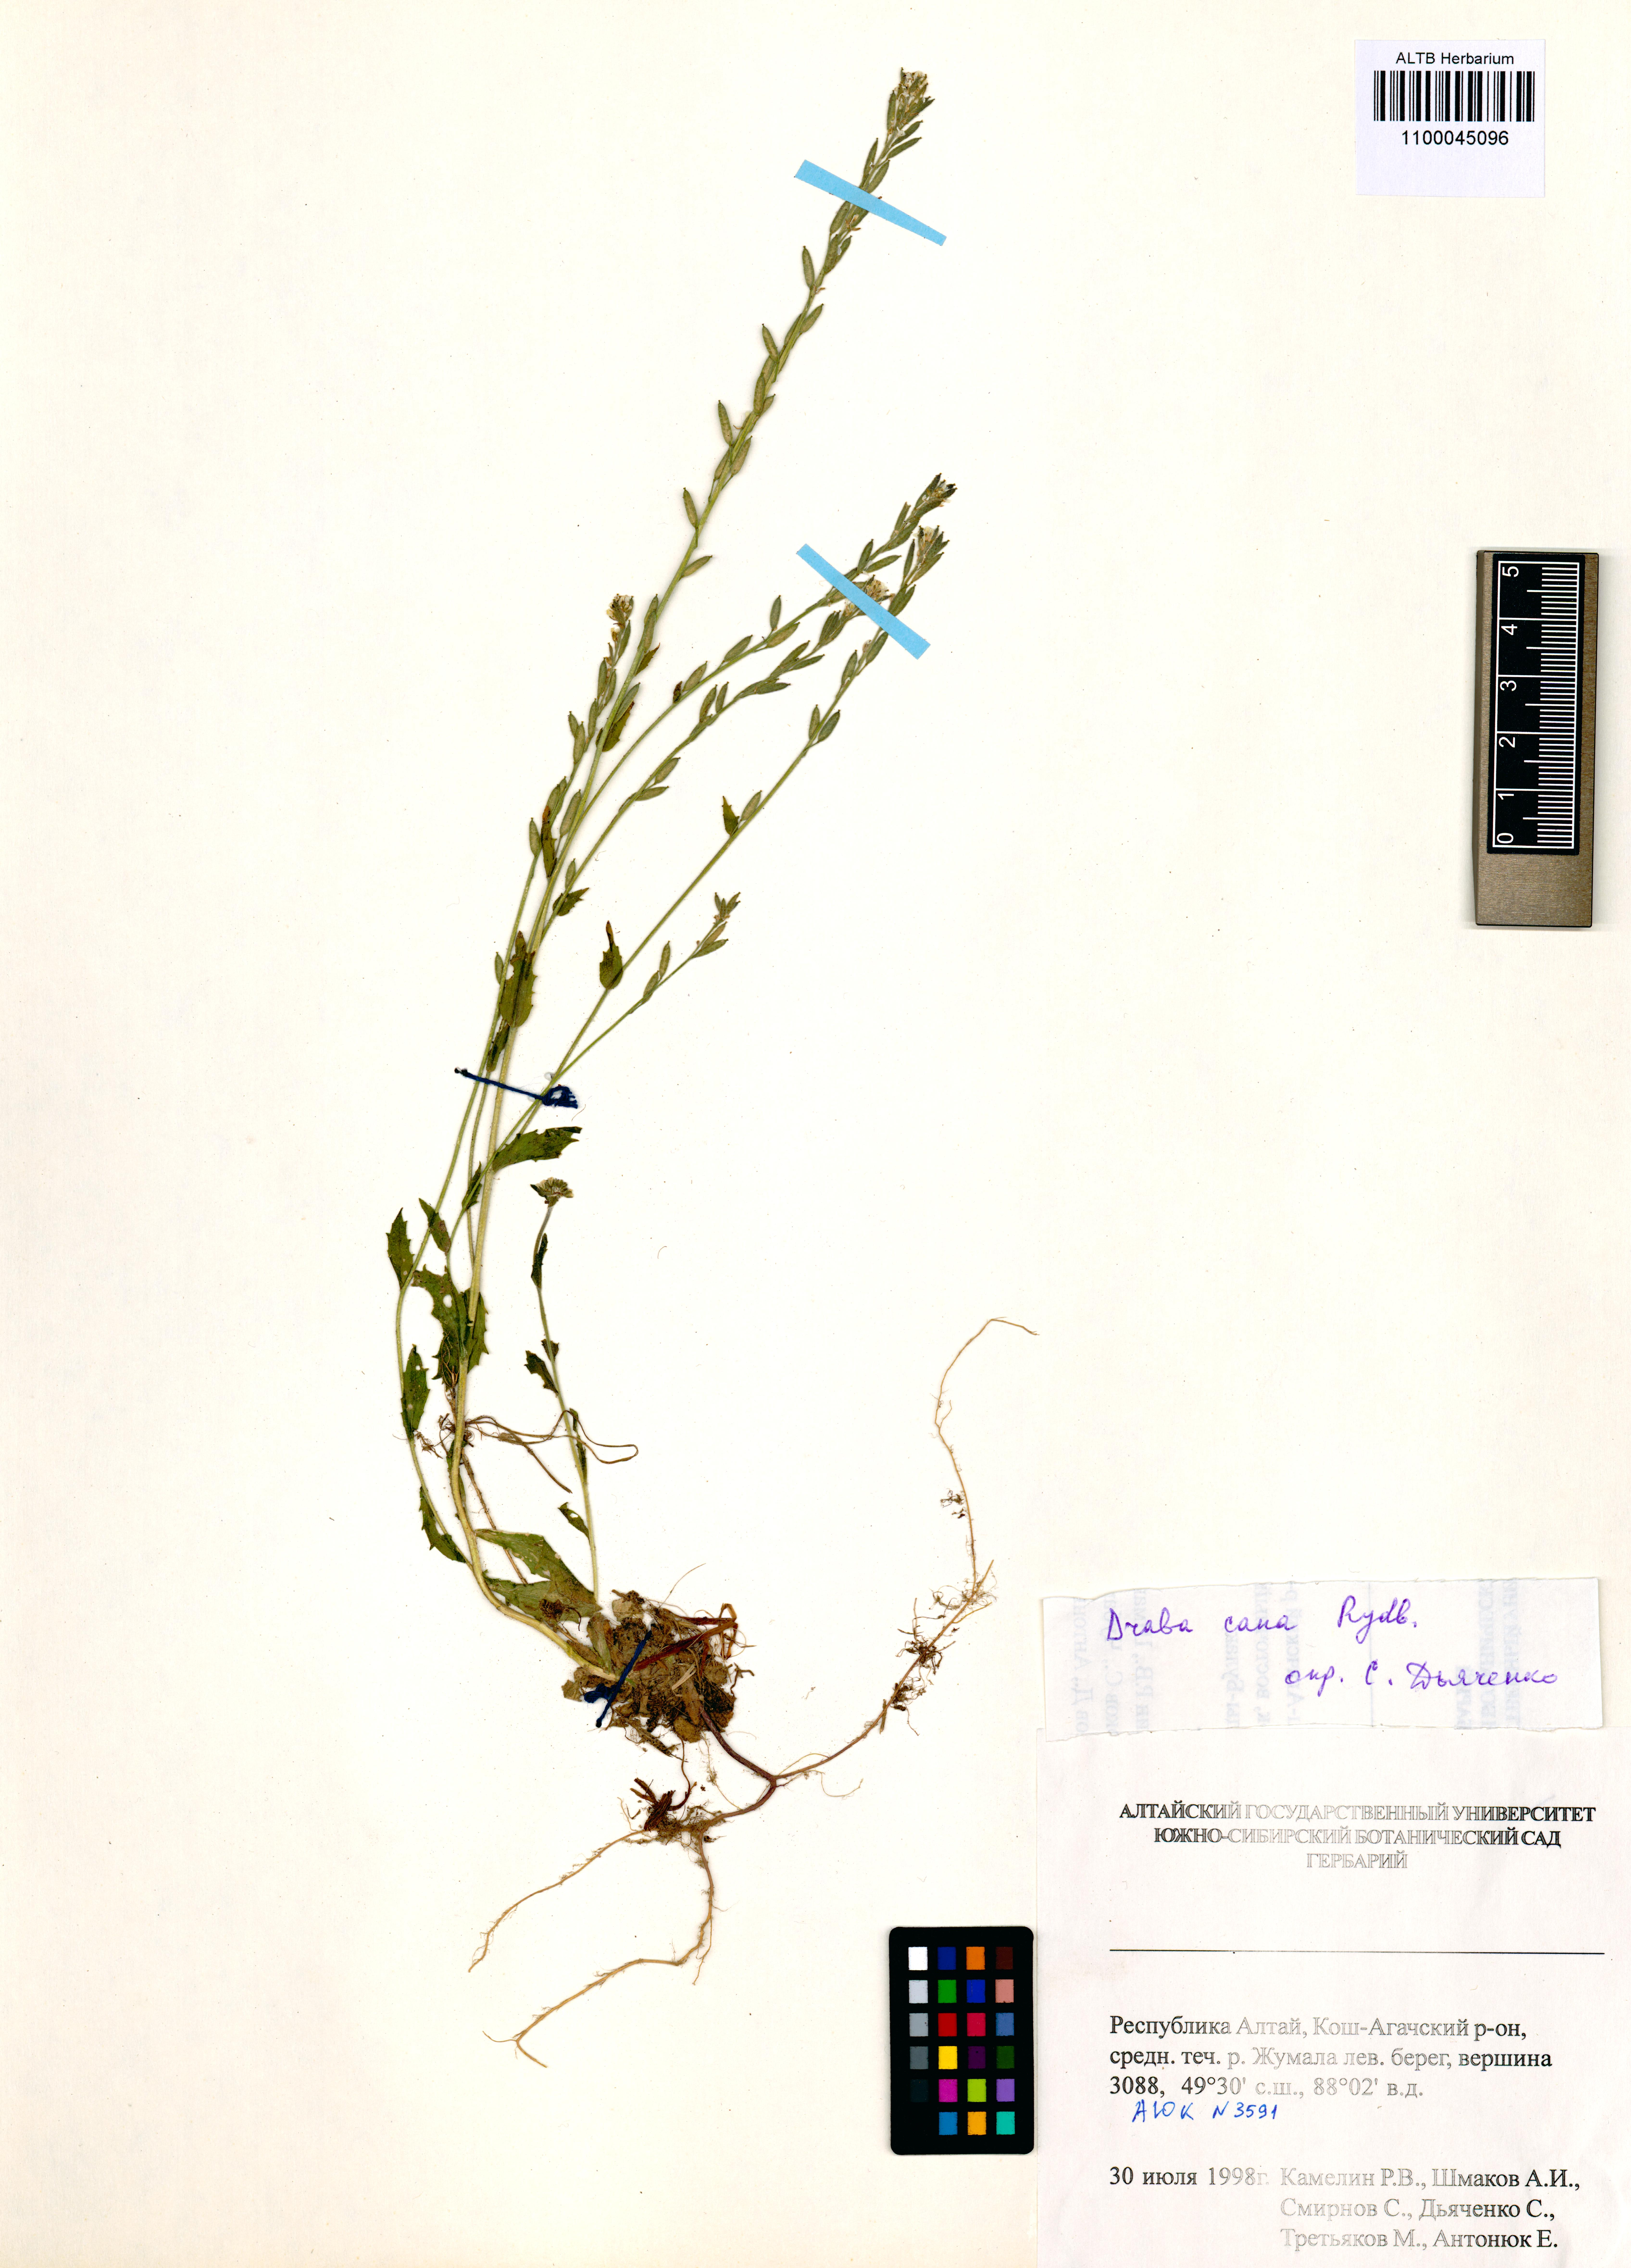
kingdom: Plantae
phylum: Tracheophyta
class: Magnoliopsida
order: Brassicales
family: Brassicaceae
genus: Draba
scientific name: Draba cana
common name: Hoary draba
